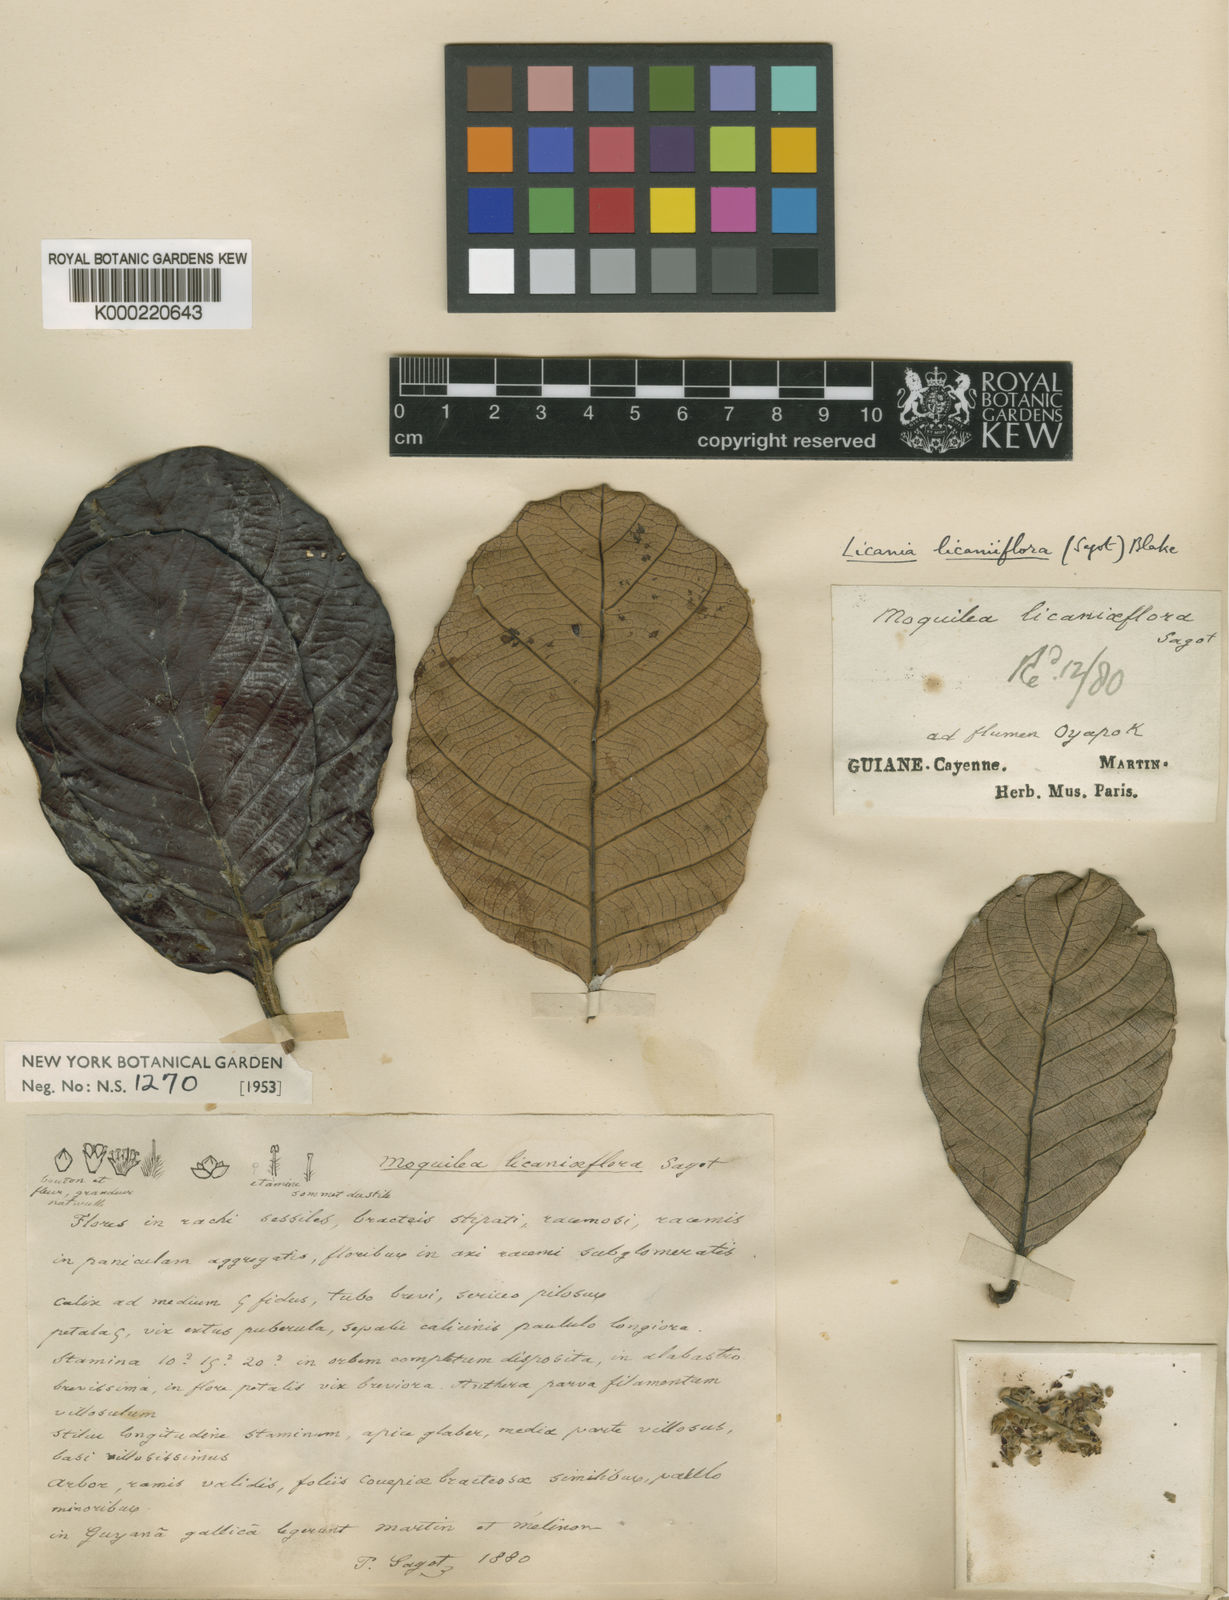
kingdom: Plantae
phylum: Tracheophyta
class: Magnoliopsida
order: Malpighiales
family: Chrysobalanaceae
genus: Licania
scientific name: Licania
